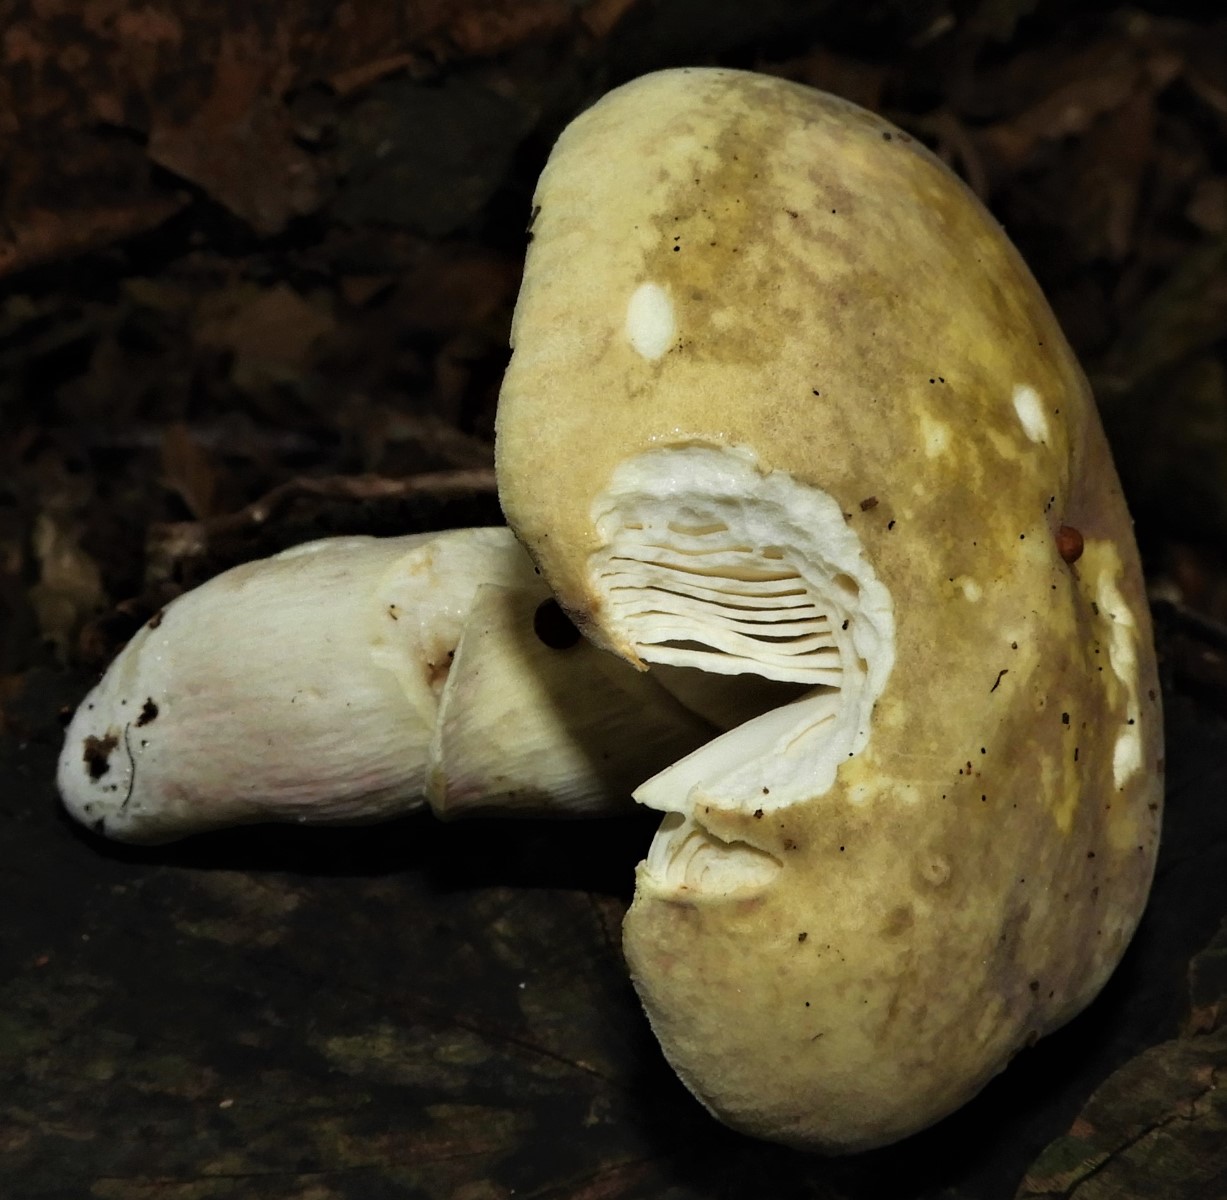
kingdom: Fungi
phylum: Basidiomycota
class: Agaricomycetes
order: Russulales
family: Russulaceae
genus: Russula
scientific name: Russula violeipes
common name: ferskengul skørhat
